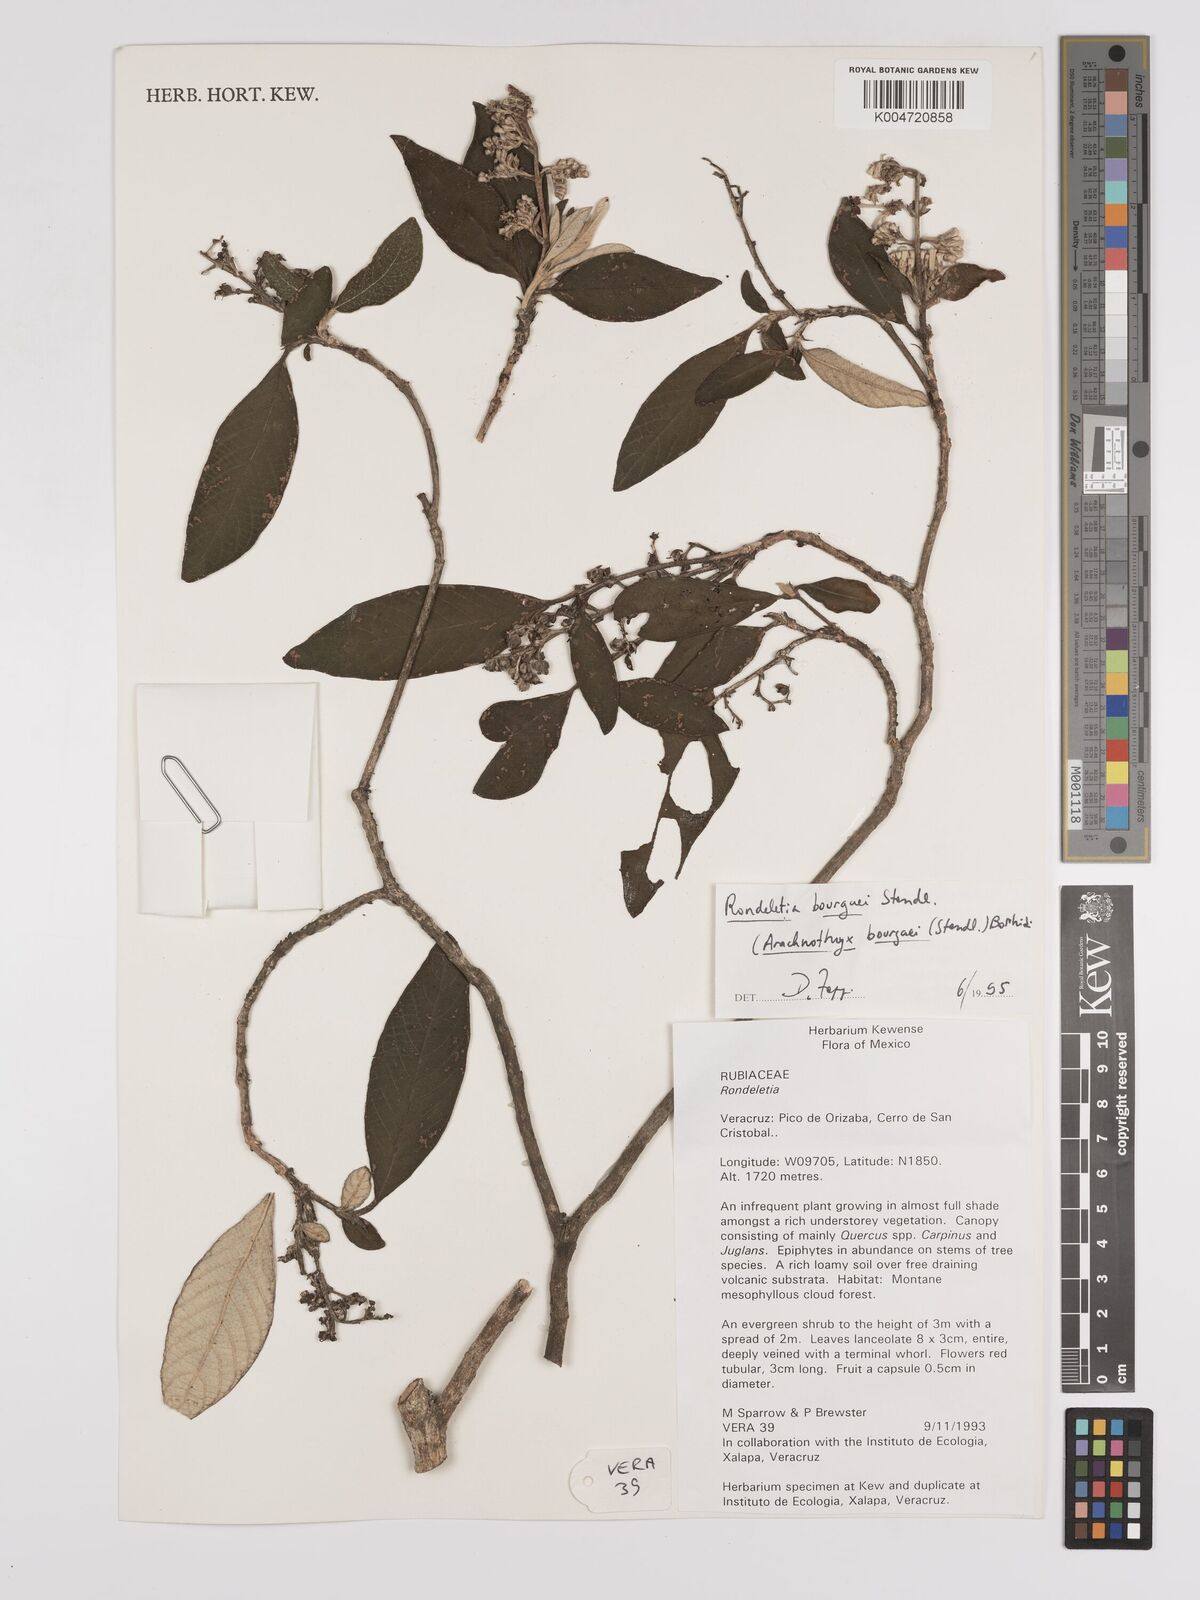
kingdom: Plantae
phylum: Tracheophyta
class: Magnoliopsida
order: Gentianales
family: Rubiaceae
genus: Arachnothryx
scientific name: Arachnothryx laniflora
